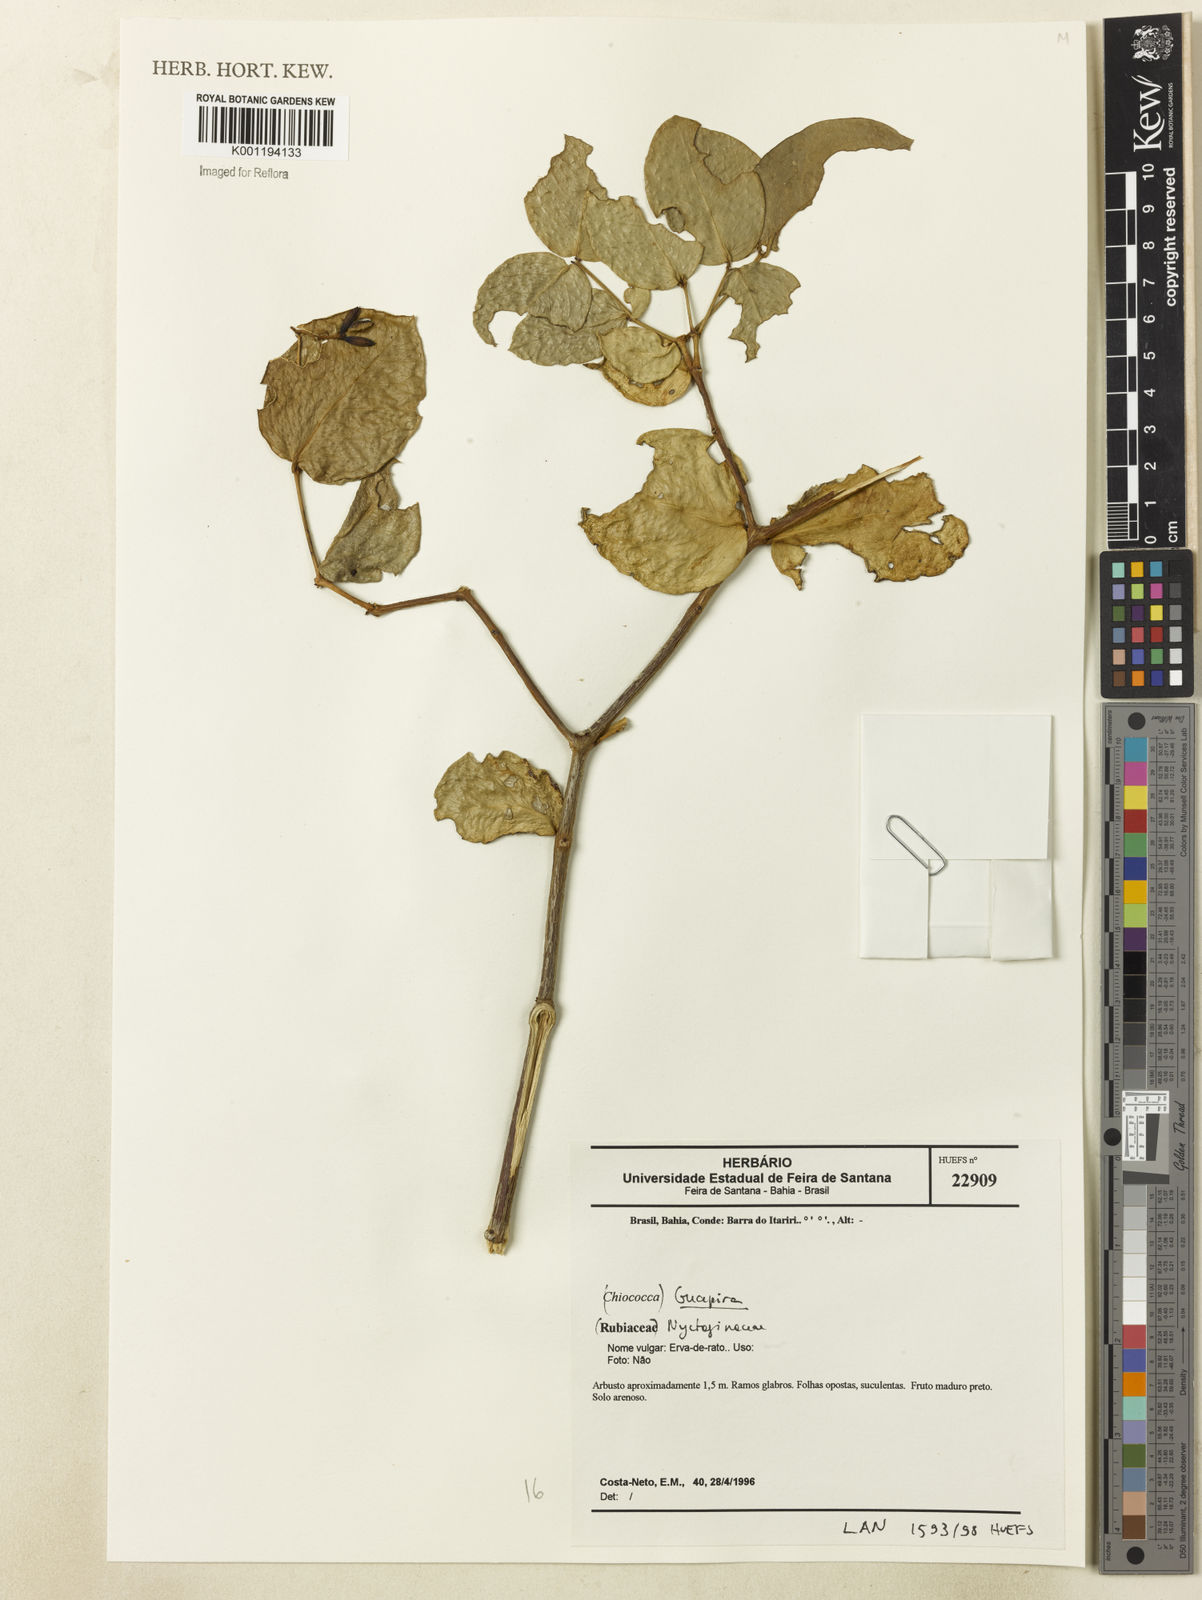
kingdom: Plantae
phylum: Tracheophyta
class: Magnoliopsida
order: Caryophyllales
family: Nyctaginaceae
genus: Guapira
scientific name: Guapira
